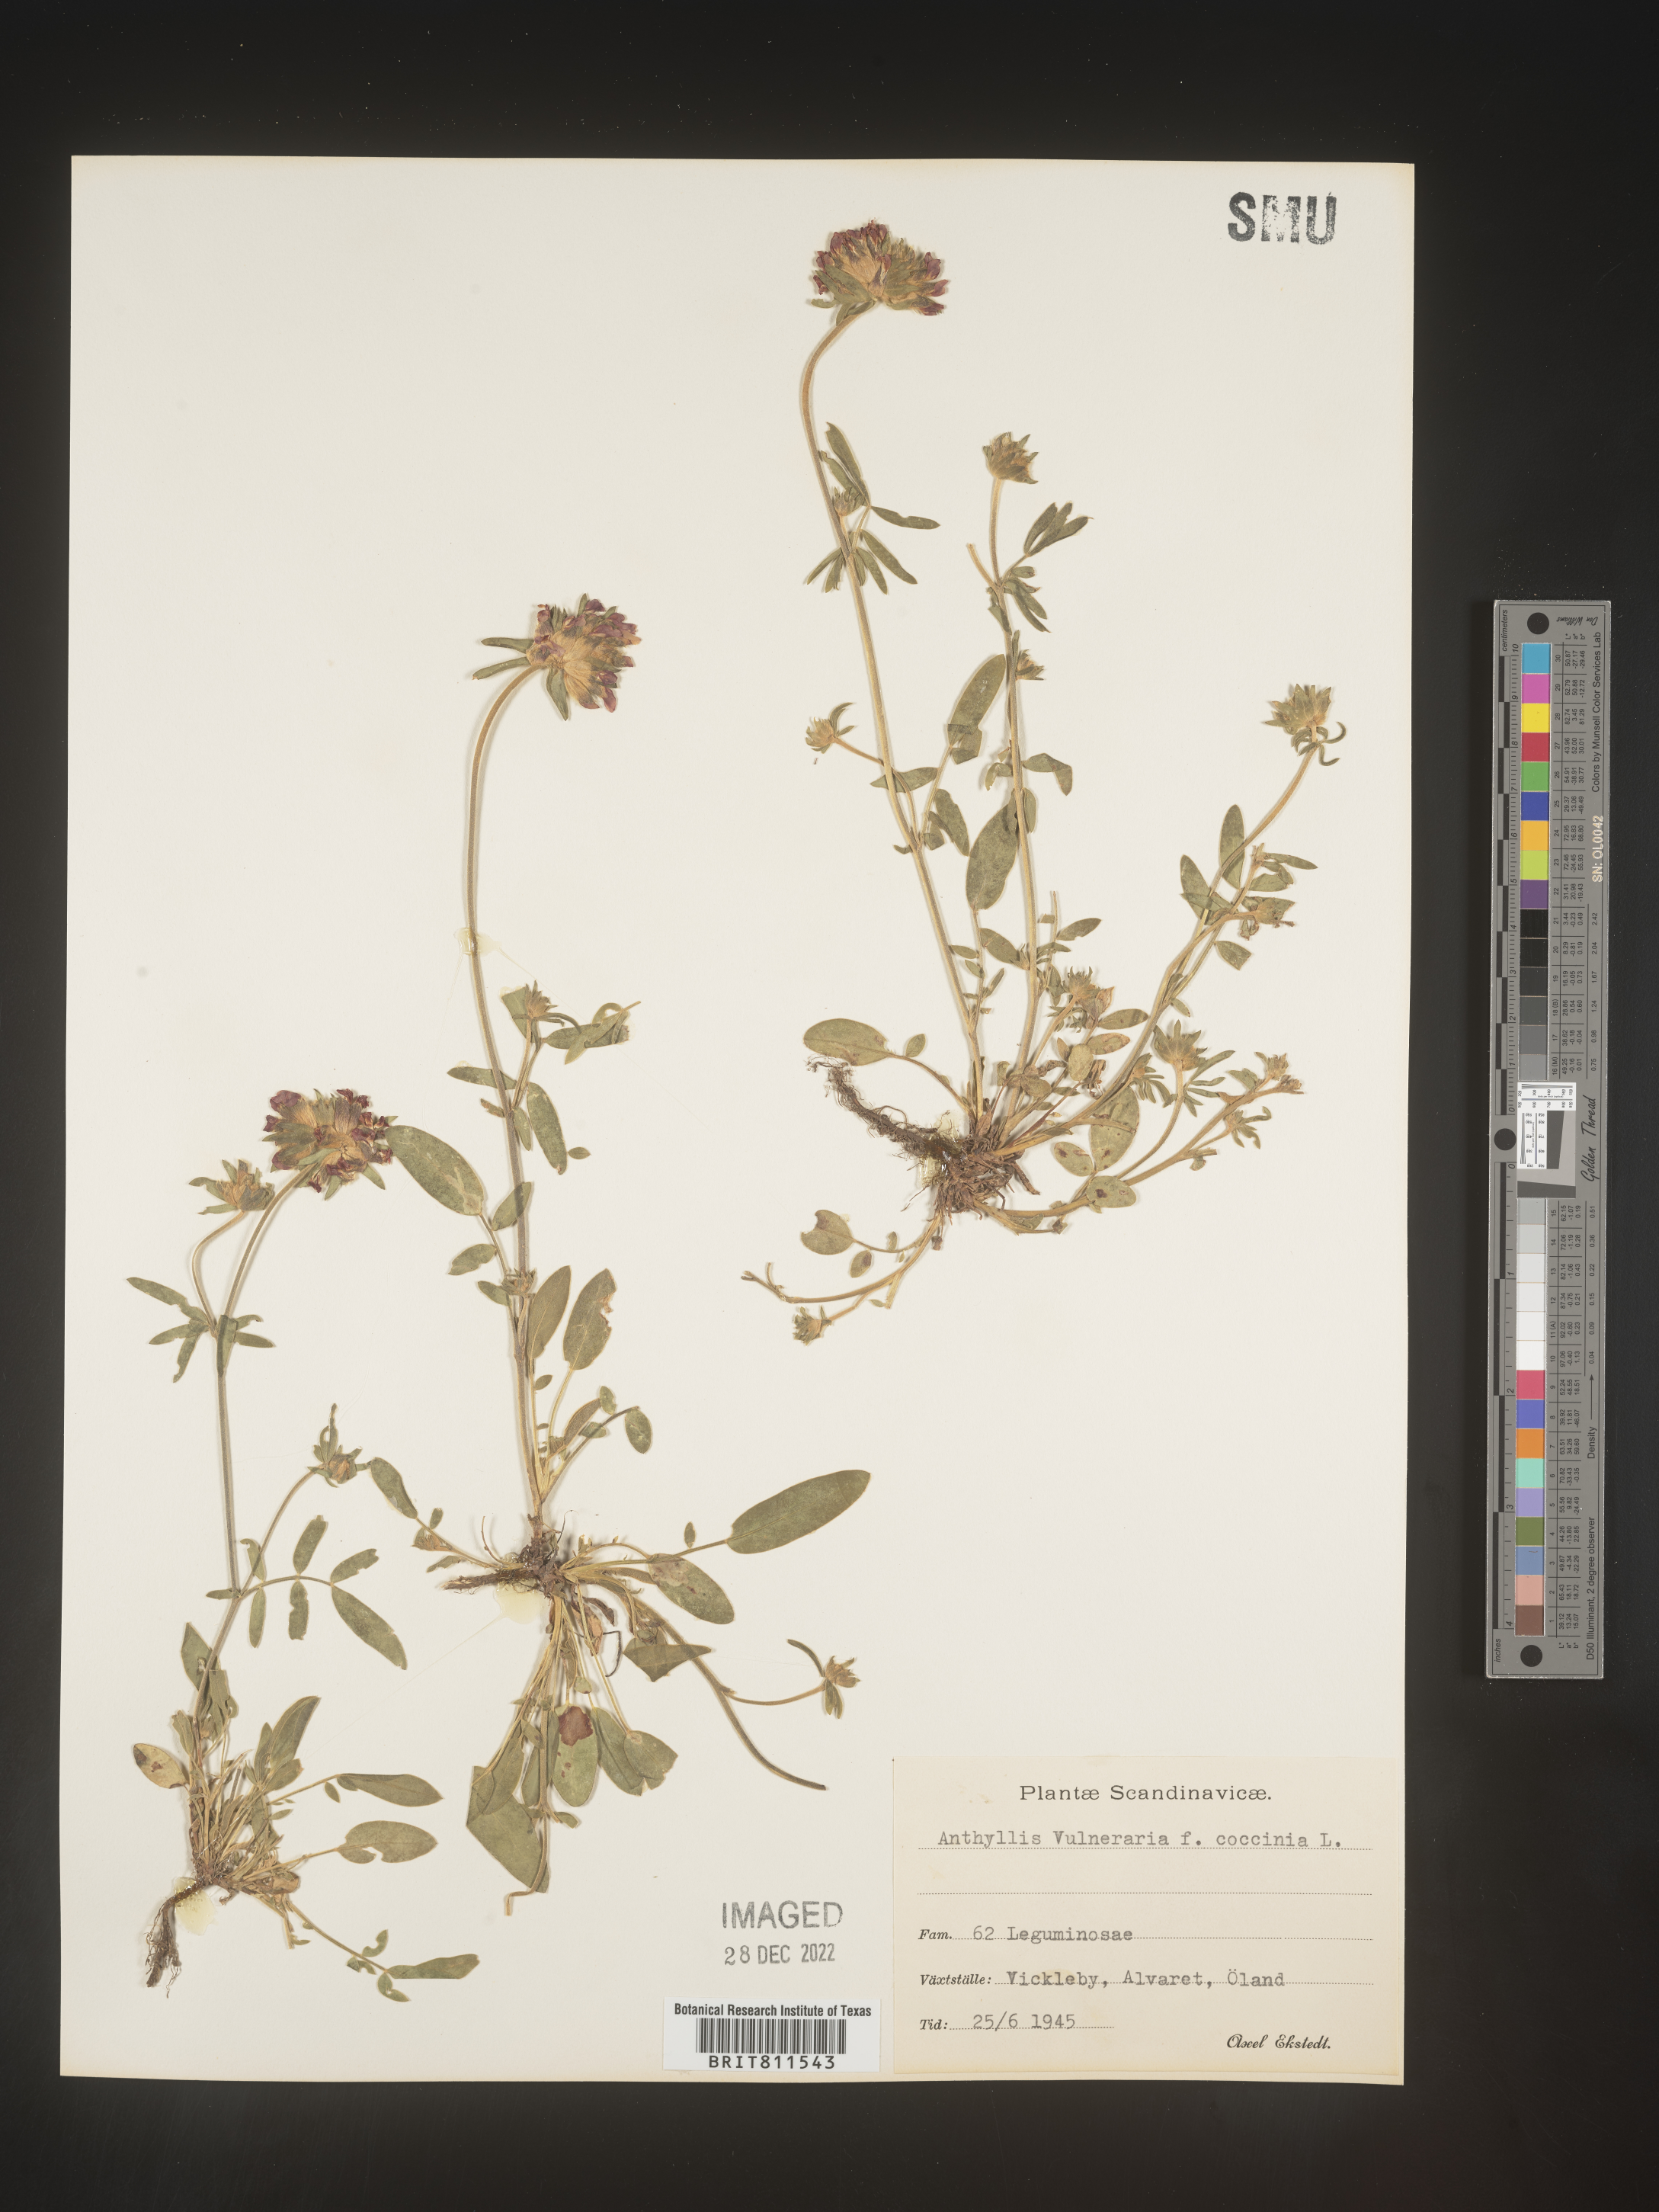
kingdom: Plantae
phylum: Tracheophyta
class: Magnoliopsida
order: Fabales
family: Fabaceae
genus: Anthyllis
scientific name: Anthyllis vulneraria
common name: Kidney vetch
